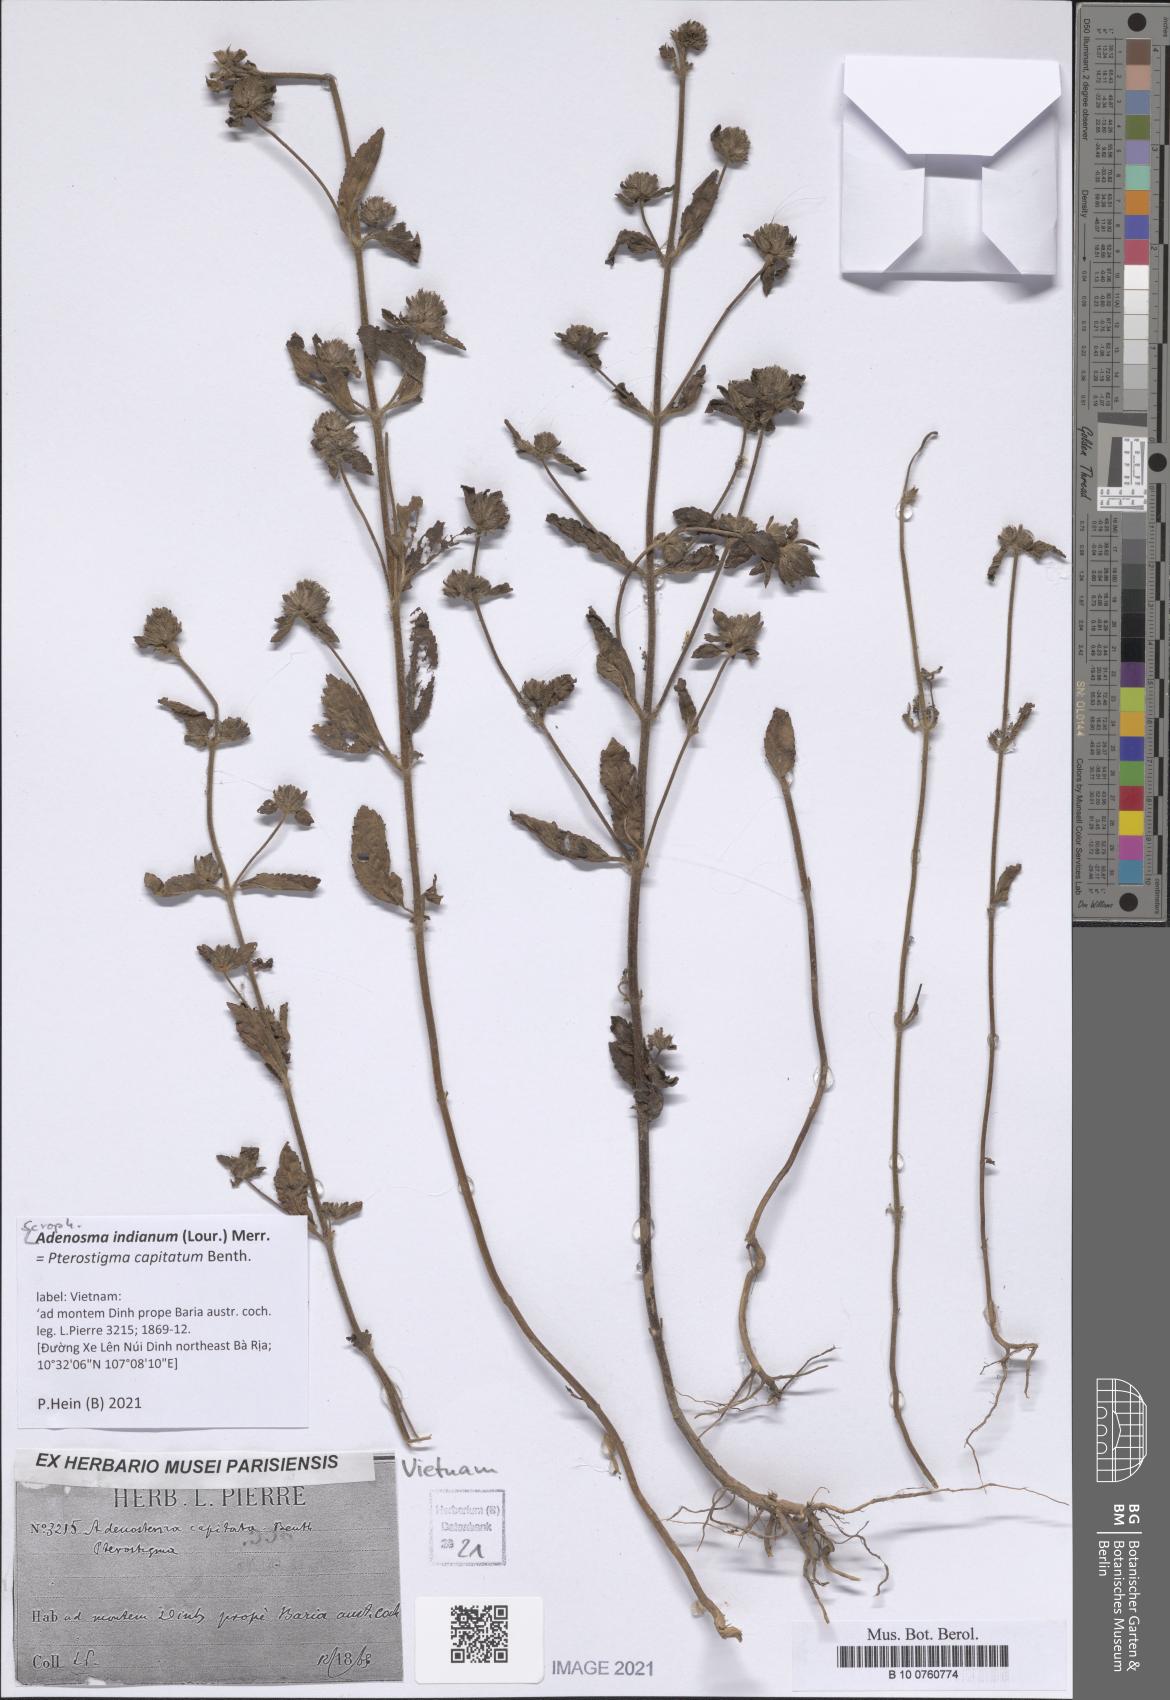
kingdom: Plantae
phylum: Tracheophyta
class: Magnoliopsida
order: Lamiales
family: Plantaginaceae
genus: Adenosma
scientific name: Adenosma indiana
